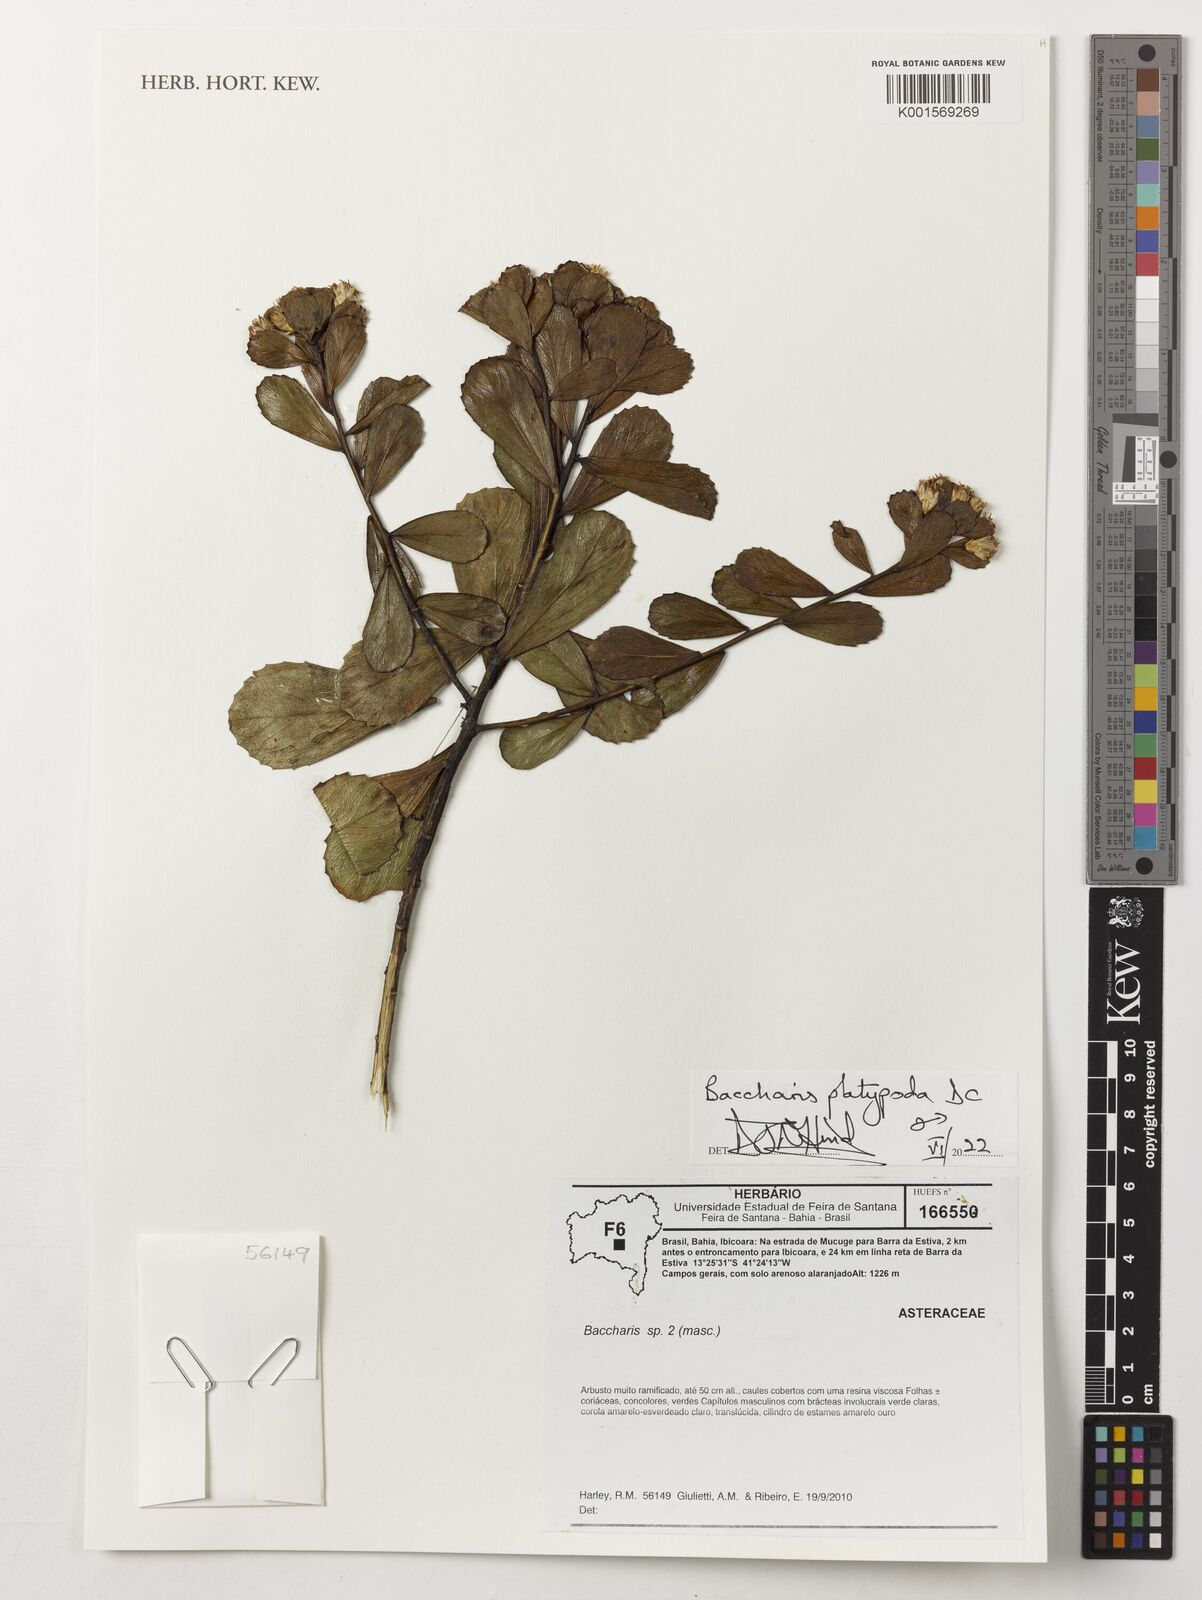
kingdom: Plantae
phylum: Tracheophyta
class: Magnoliopsida
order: Asterales
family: Asteraceae
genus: Baccharis
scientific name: Baccharis platypoda
